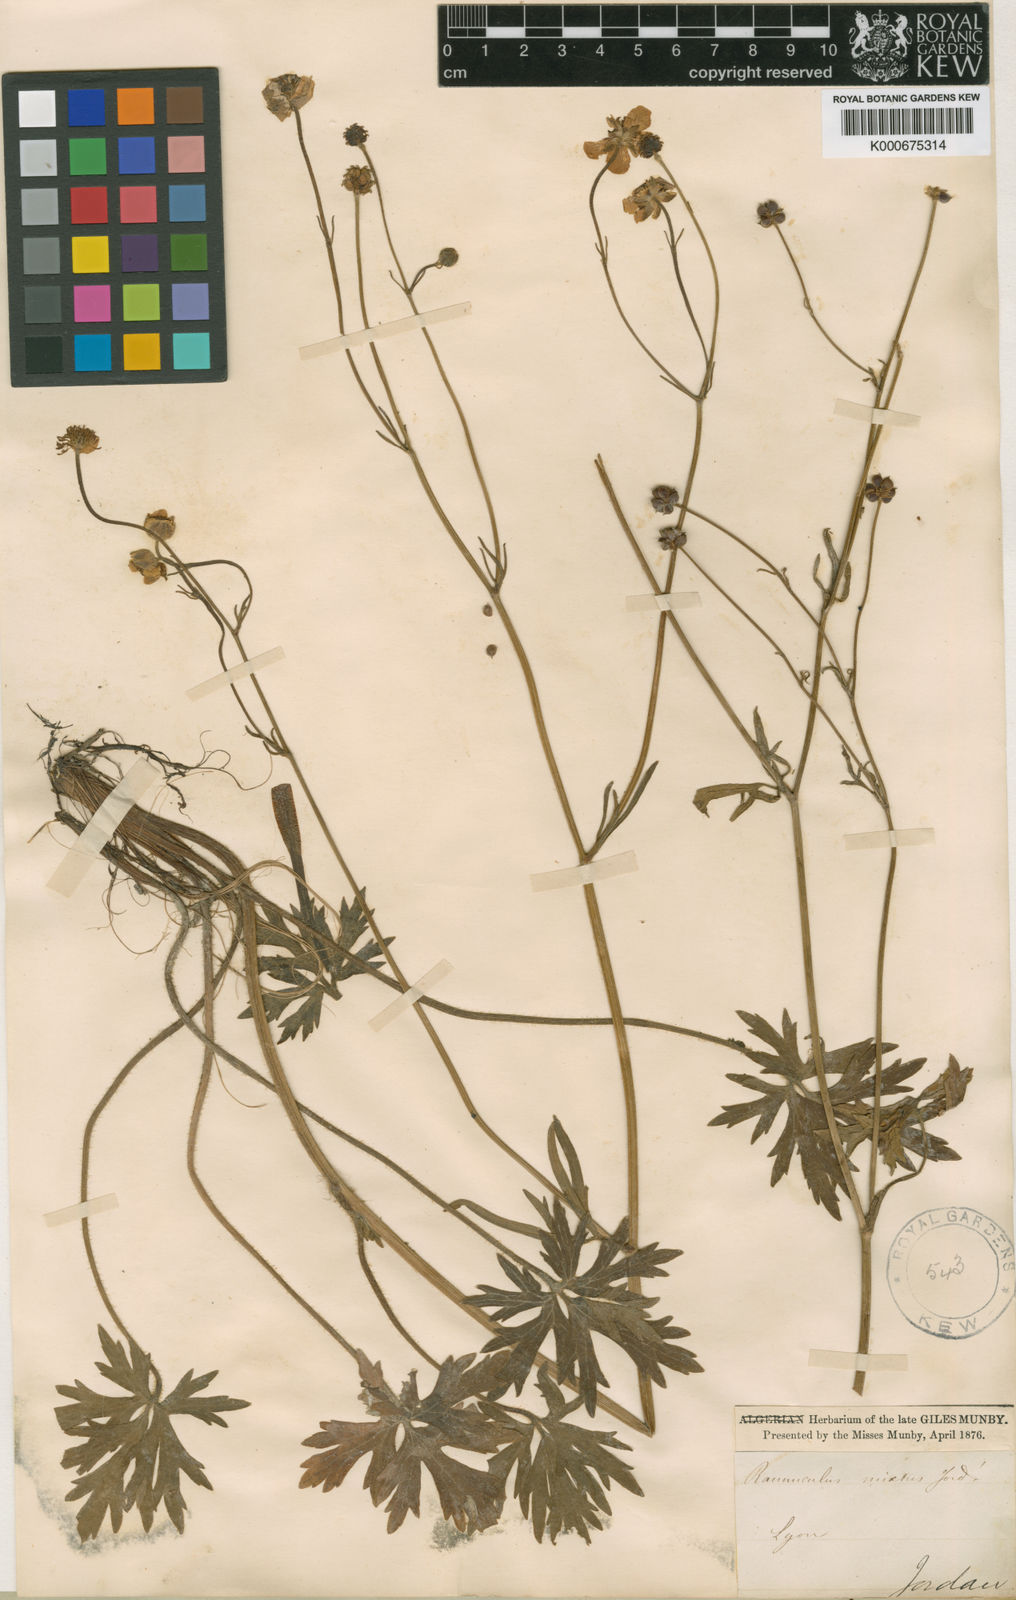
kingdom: Plantae
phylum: Tracheophyta
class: Magnoliopsida
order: Ranunculales
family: Ranunculaceae
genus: Ranunculus
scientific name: Ranunculus polyanthemos
